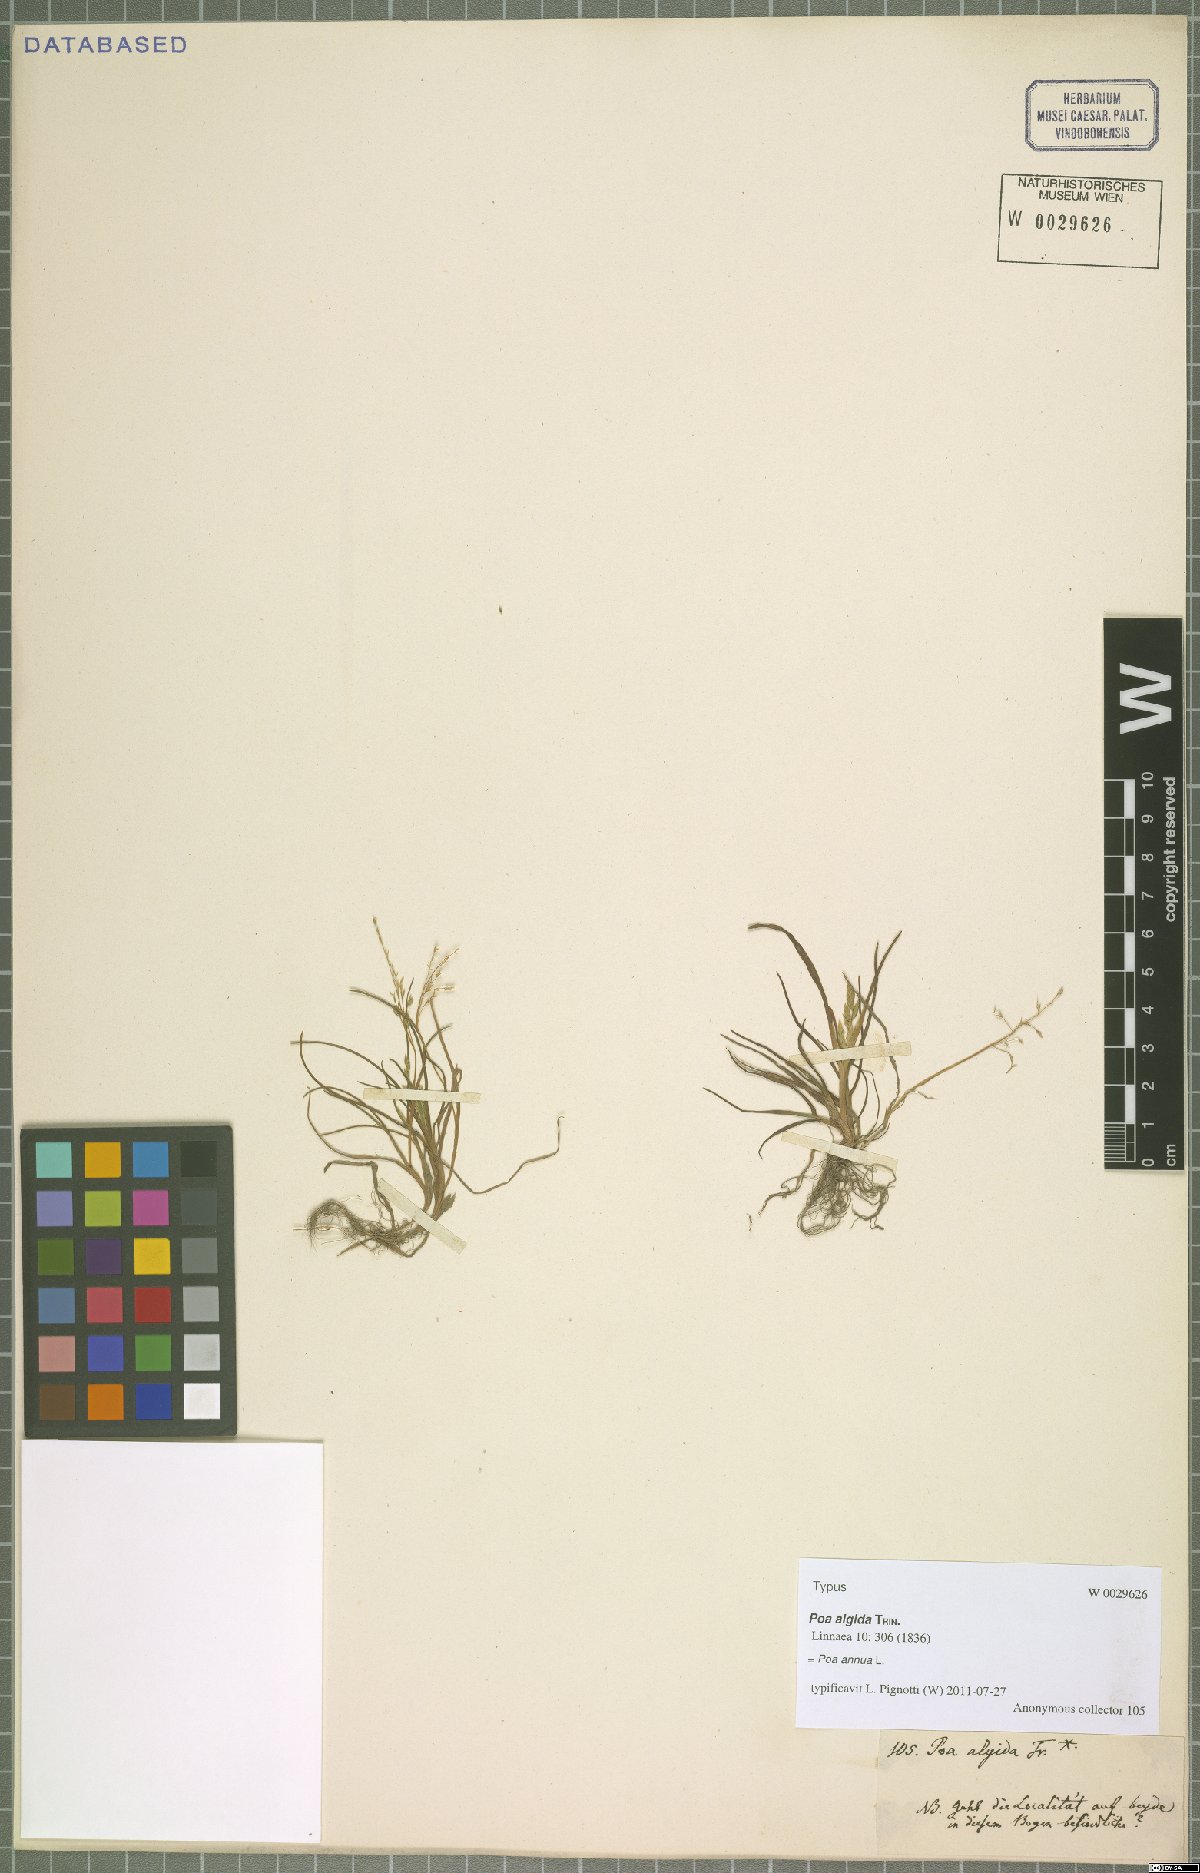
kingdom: Plantae
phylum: Tracheophyta
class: Liliopsida
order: Poales
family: Poaceae
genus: Poa
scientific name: Poa annua
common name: Annual bluegrass
